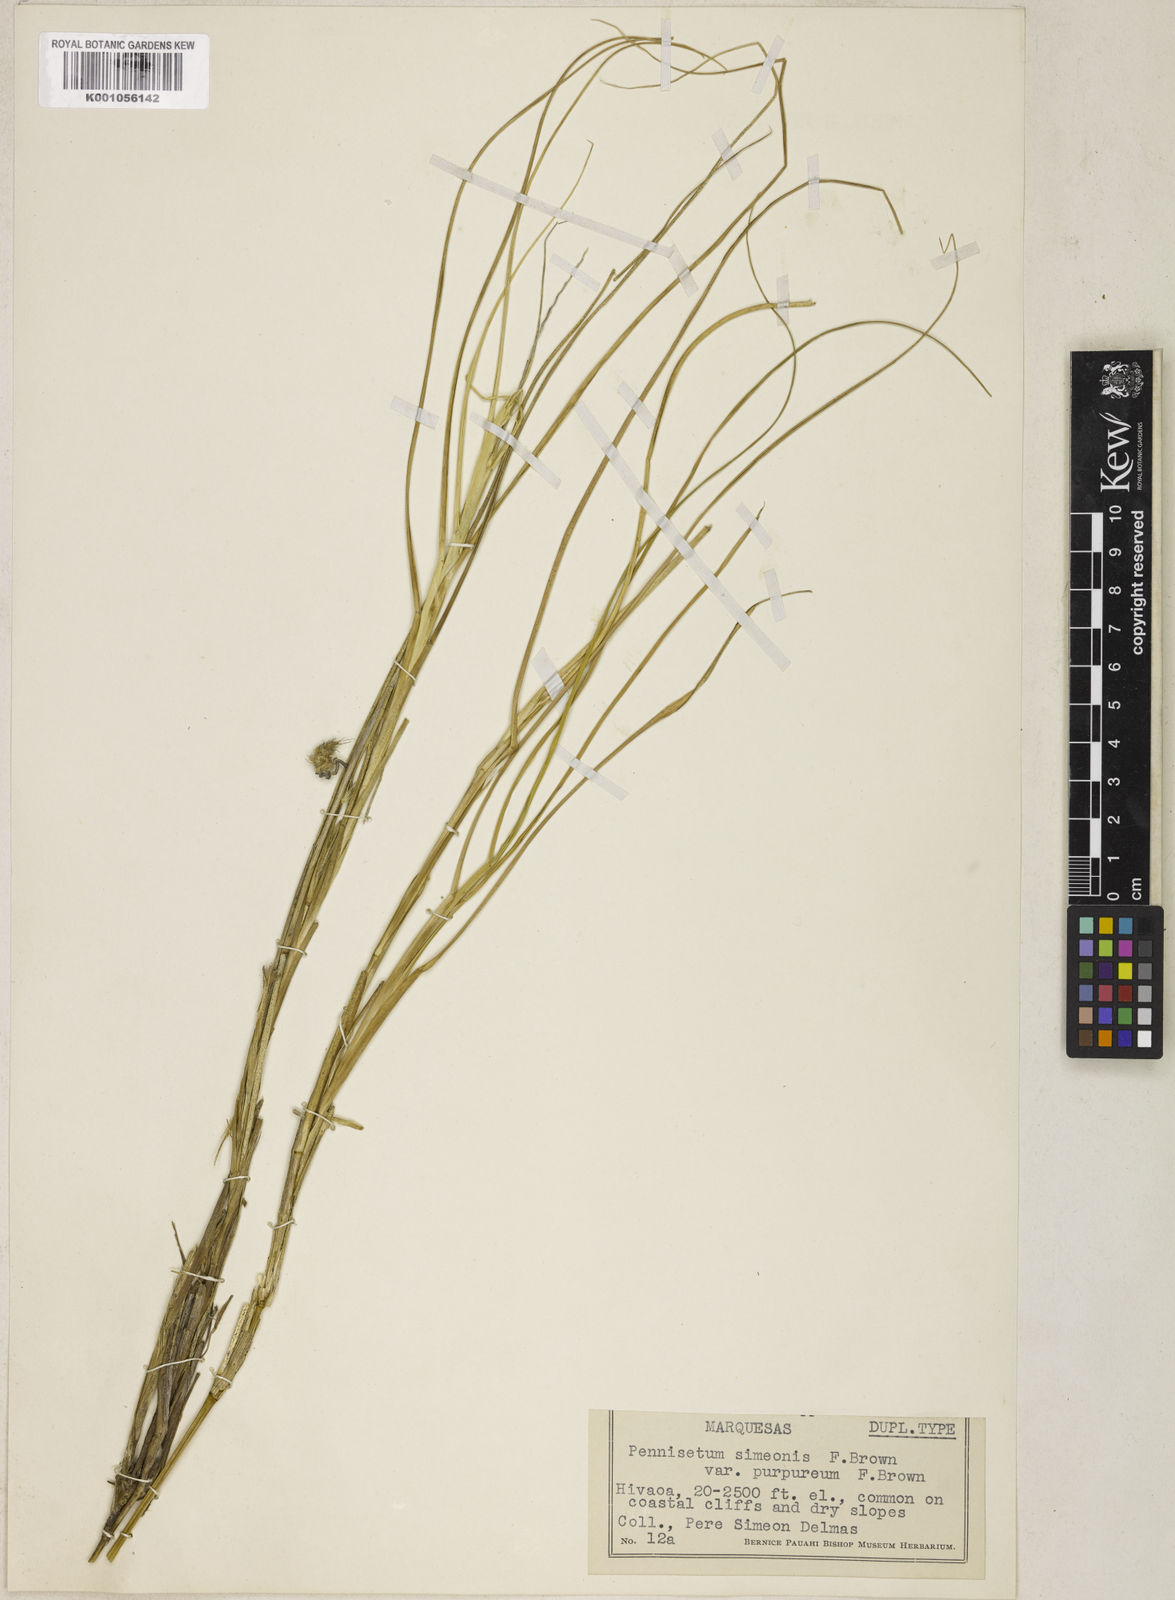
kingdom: Plantae
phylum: Tracheophyta
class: Liliopsida
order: Poales
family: Poaceae
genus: Cenchrus
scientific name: Cenchrus articularis
